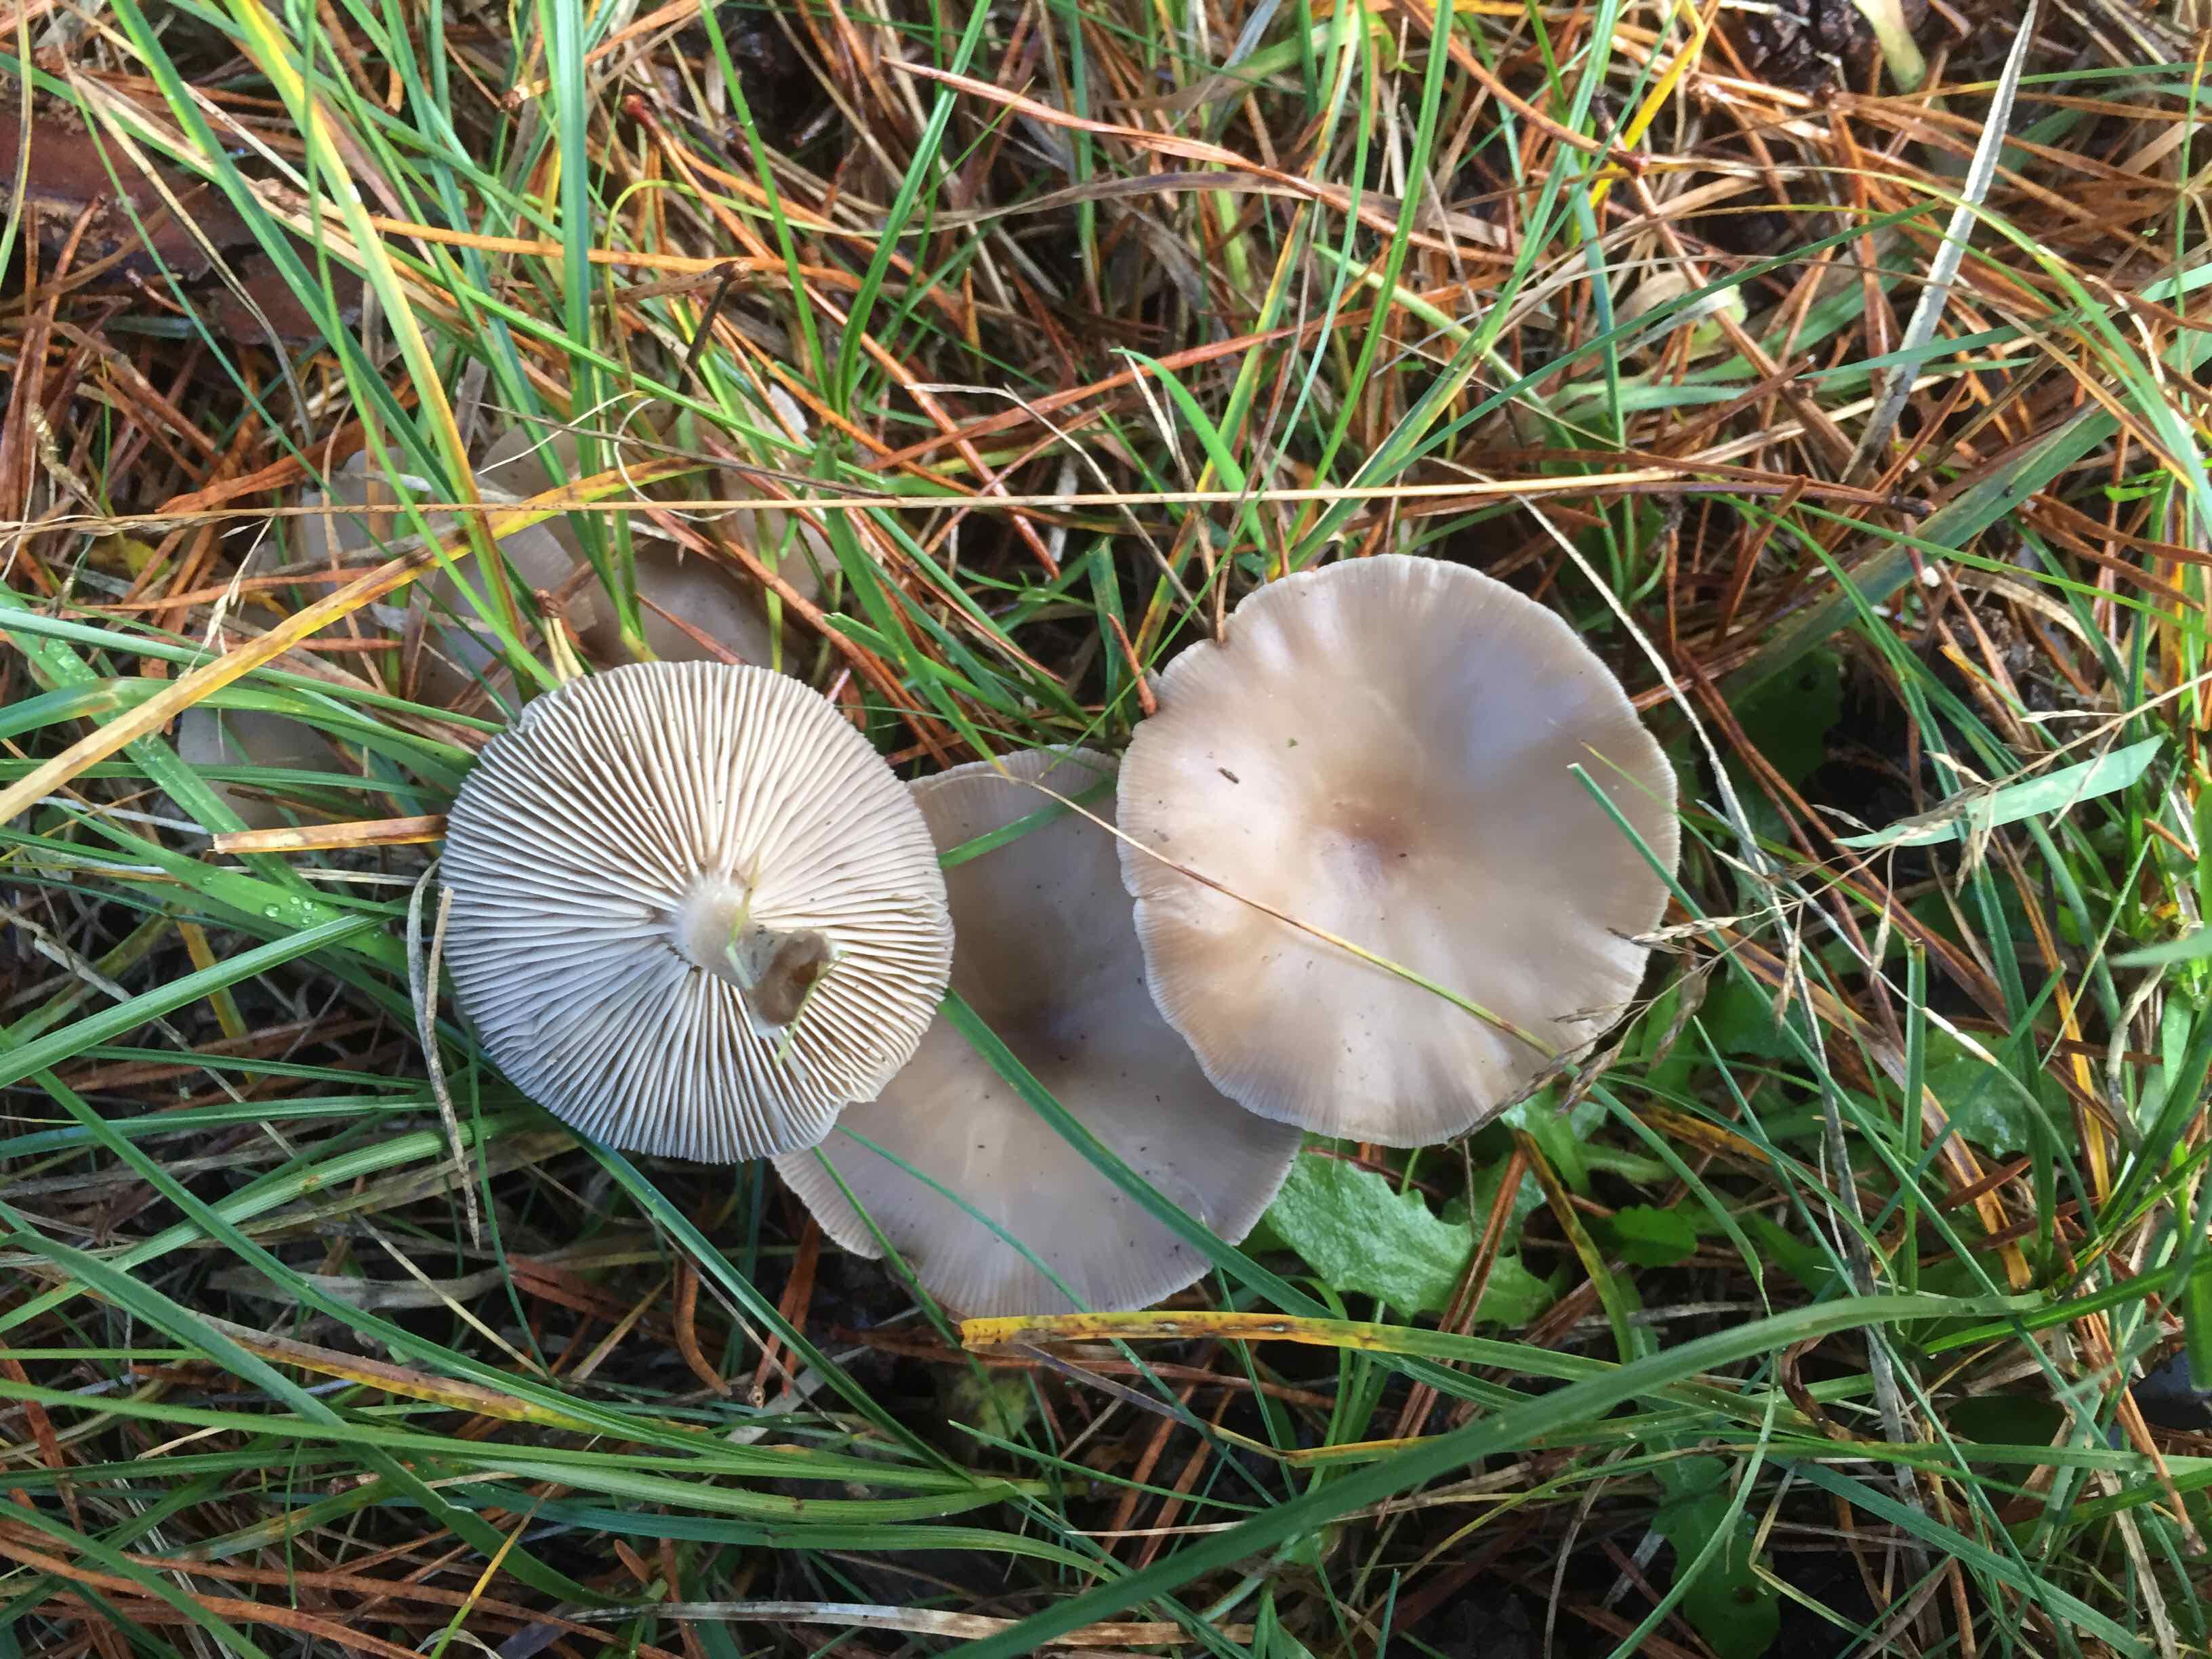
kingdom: Fungi
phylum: Basidiomycota
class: Agaricomycetes
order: Agaricales
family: Tricholomataceae
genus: Melanoleuca
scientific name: Melanoleuca
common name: munkehat
